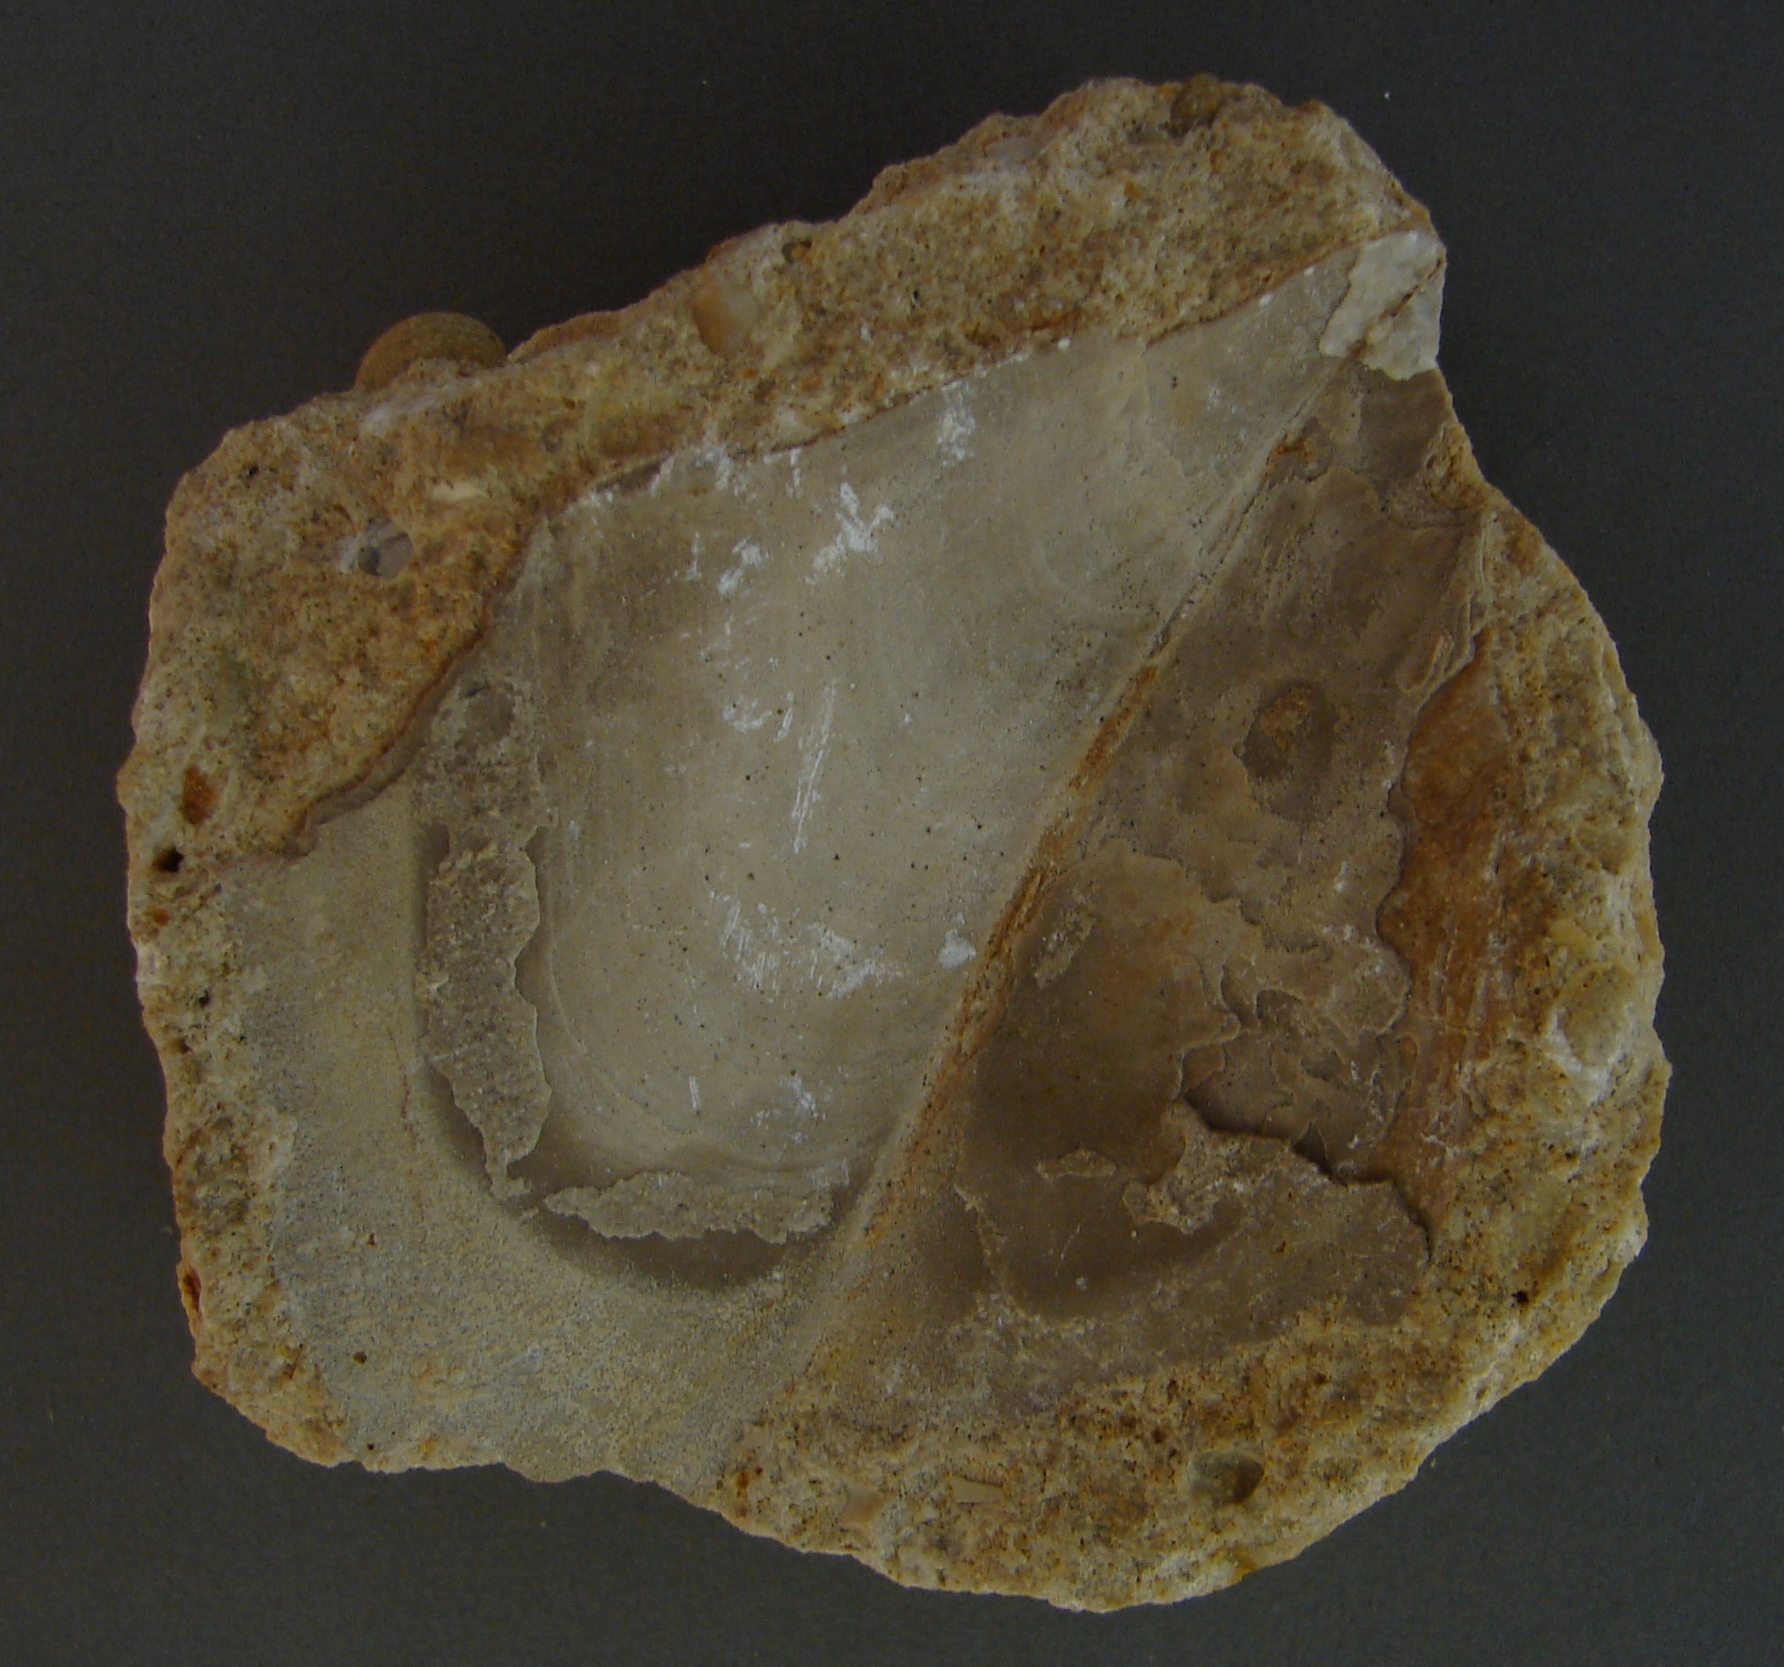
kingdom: Animalia
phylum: Mollusca
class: Bivalvia
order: Pectinida
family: Pectinidae
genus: Lyriochlamys
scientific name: Lyriochlamys
